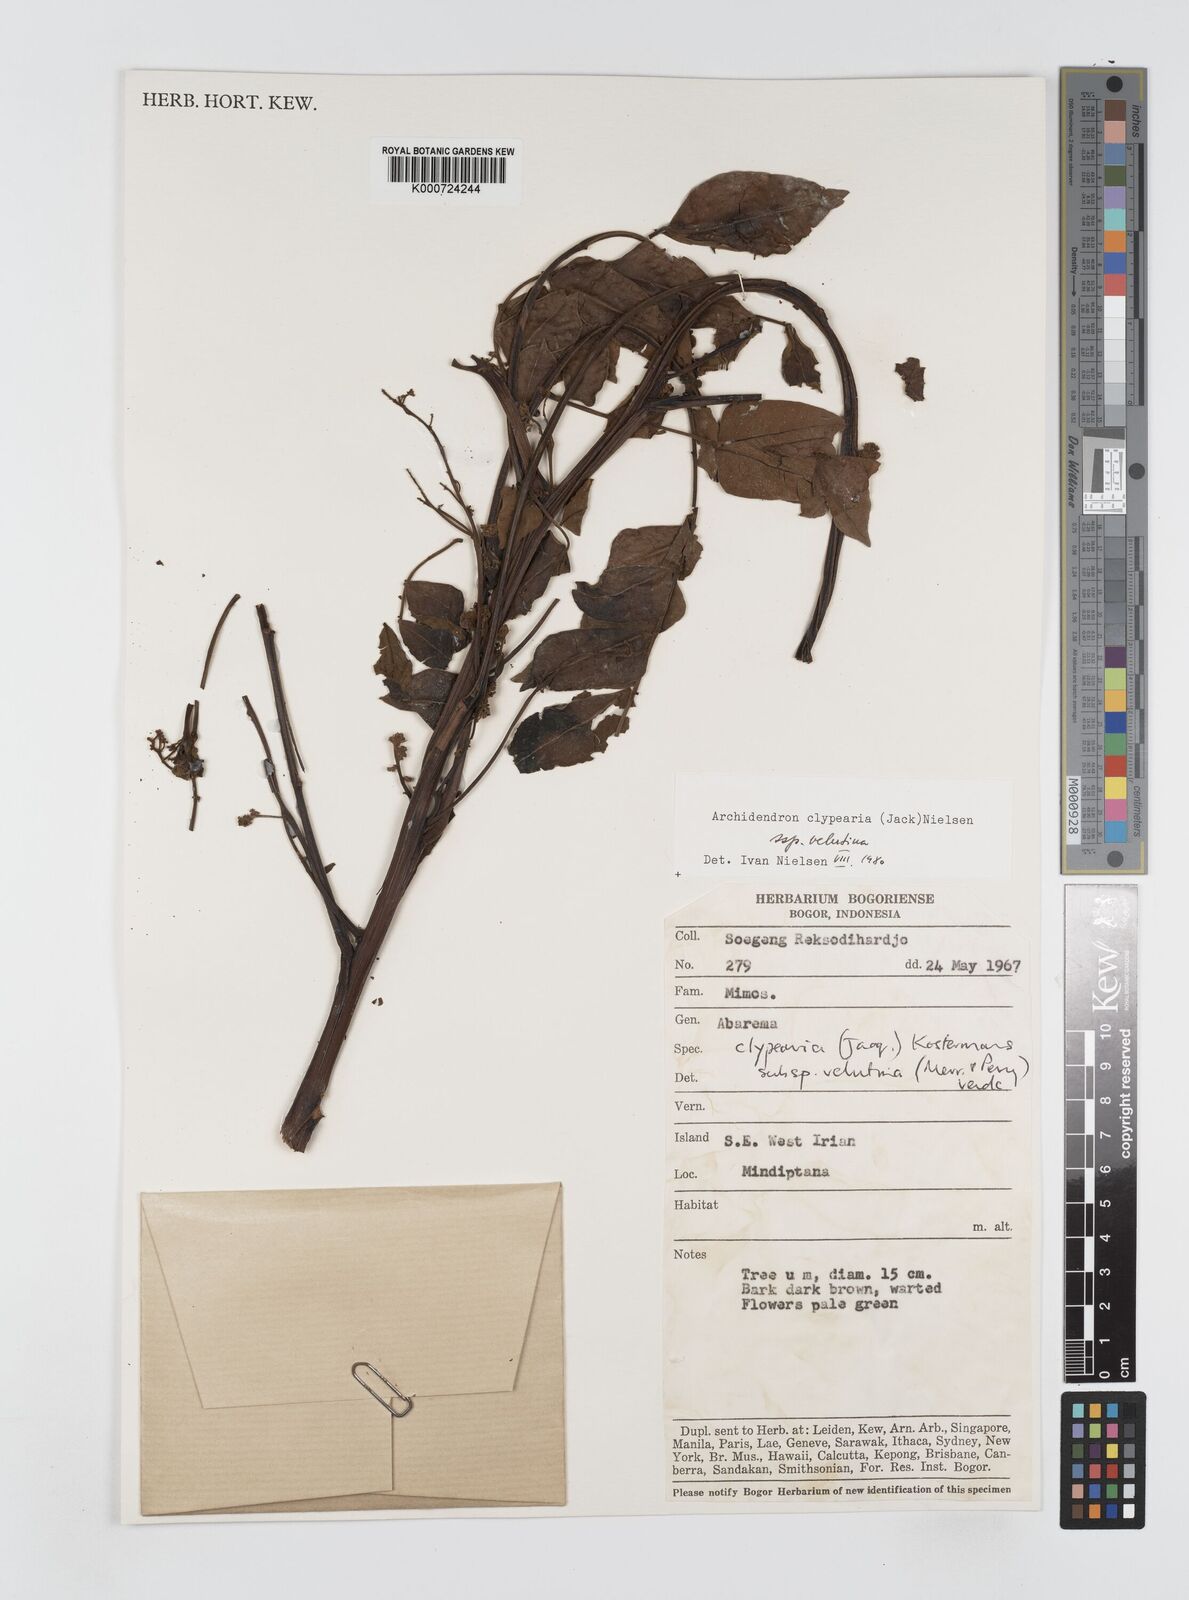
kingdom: Plantae
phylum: Tracheophyta
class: Magnoliopsida
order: Fabales
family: Fabaceae
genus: Archidendron
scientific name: Archidendron clypearia
